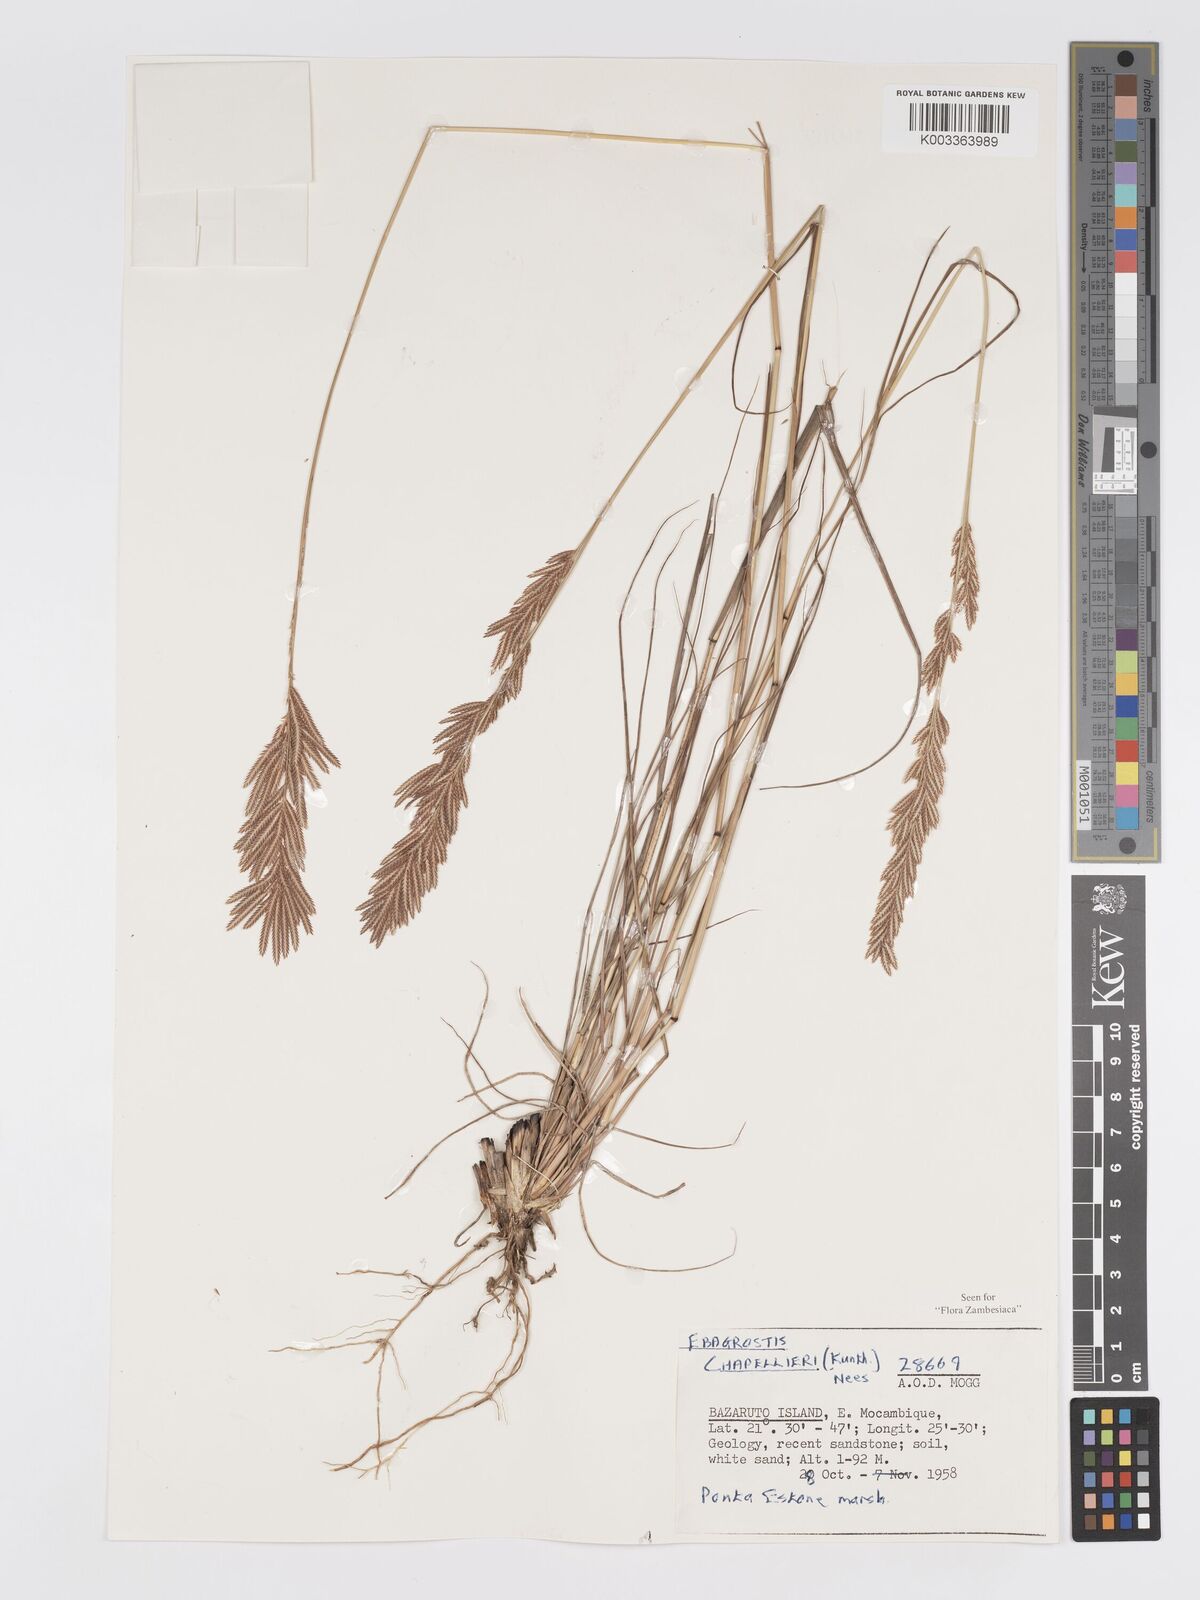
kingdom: Plantae
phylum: Tracheophyta
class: Liliopsida
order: Poales
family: Poaceae
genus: Eragrostis
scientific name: Eragrostis chapelieri
